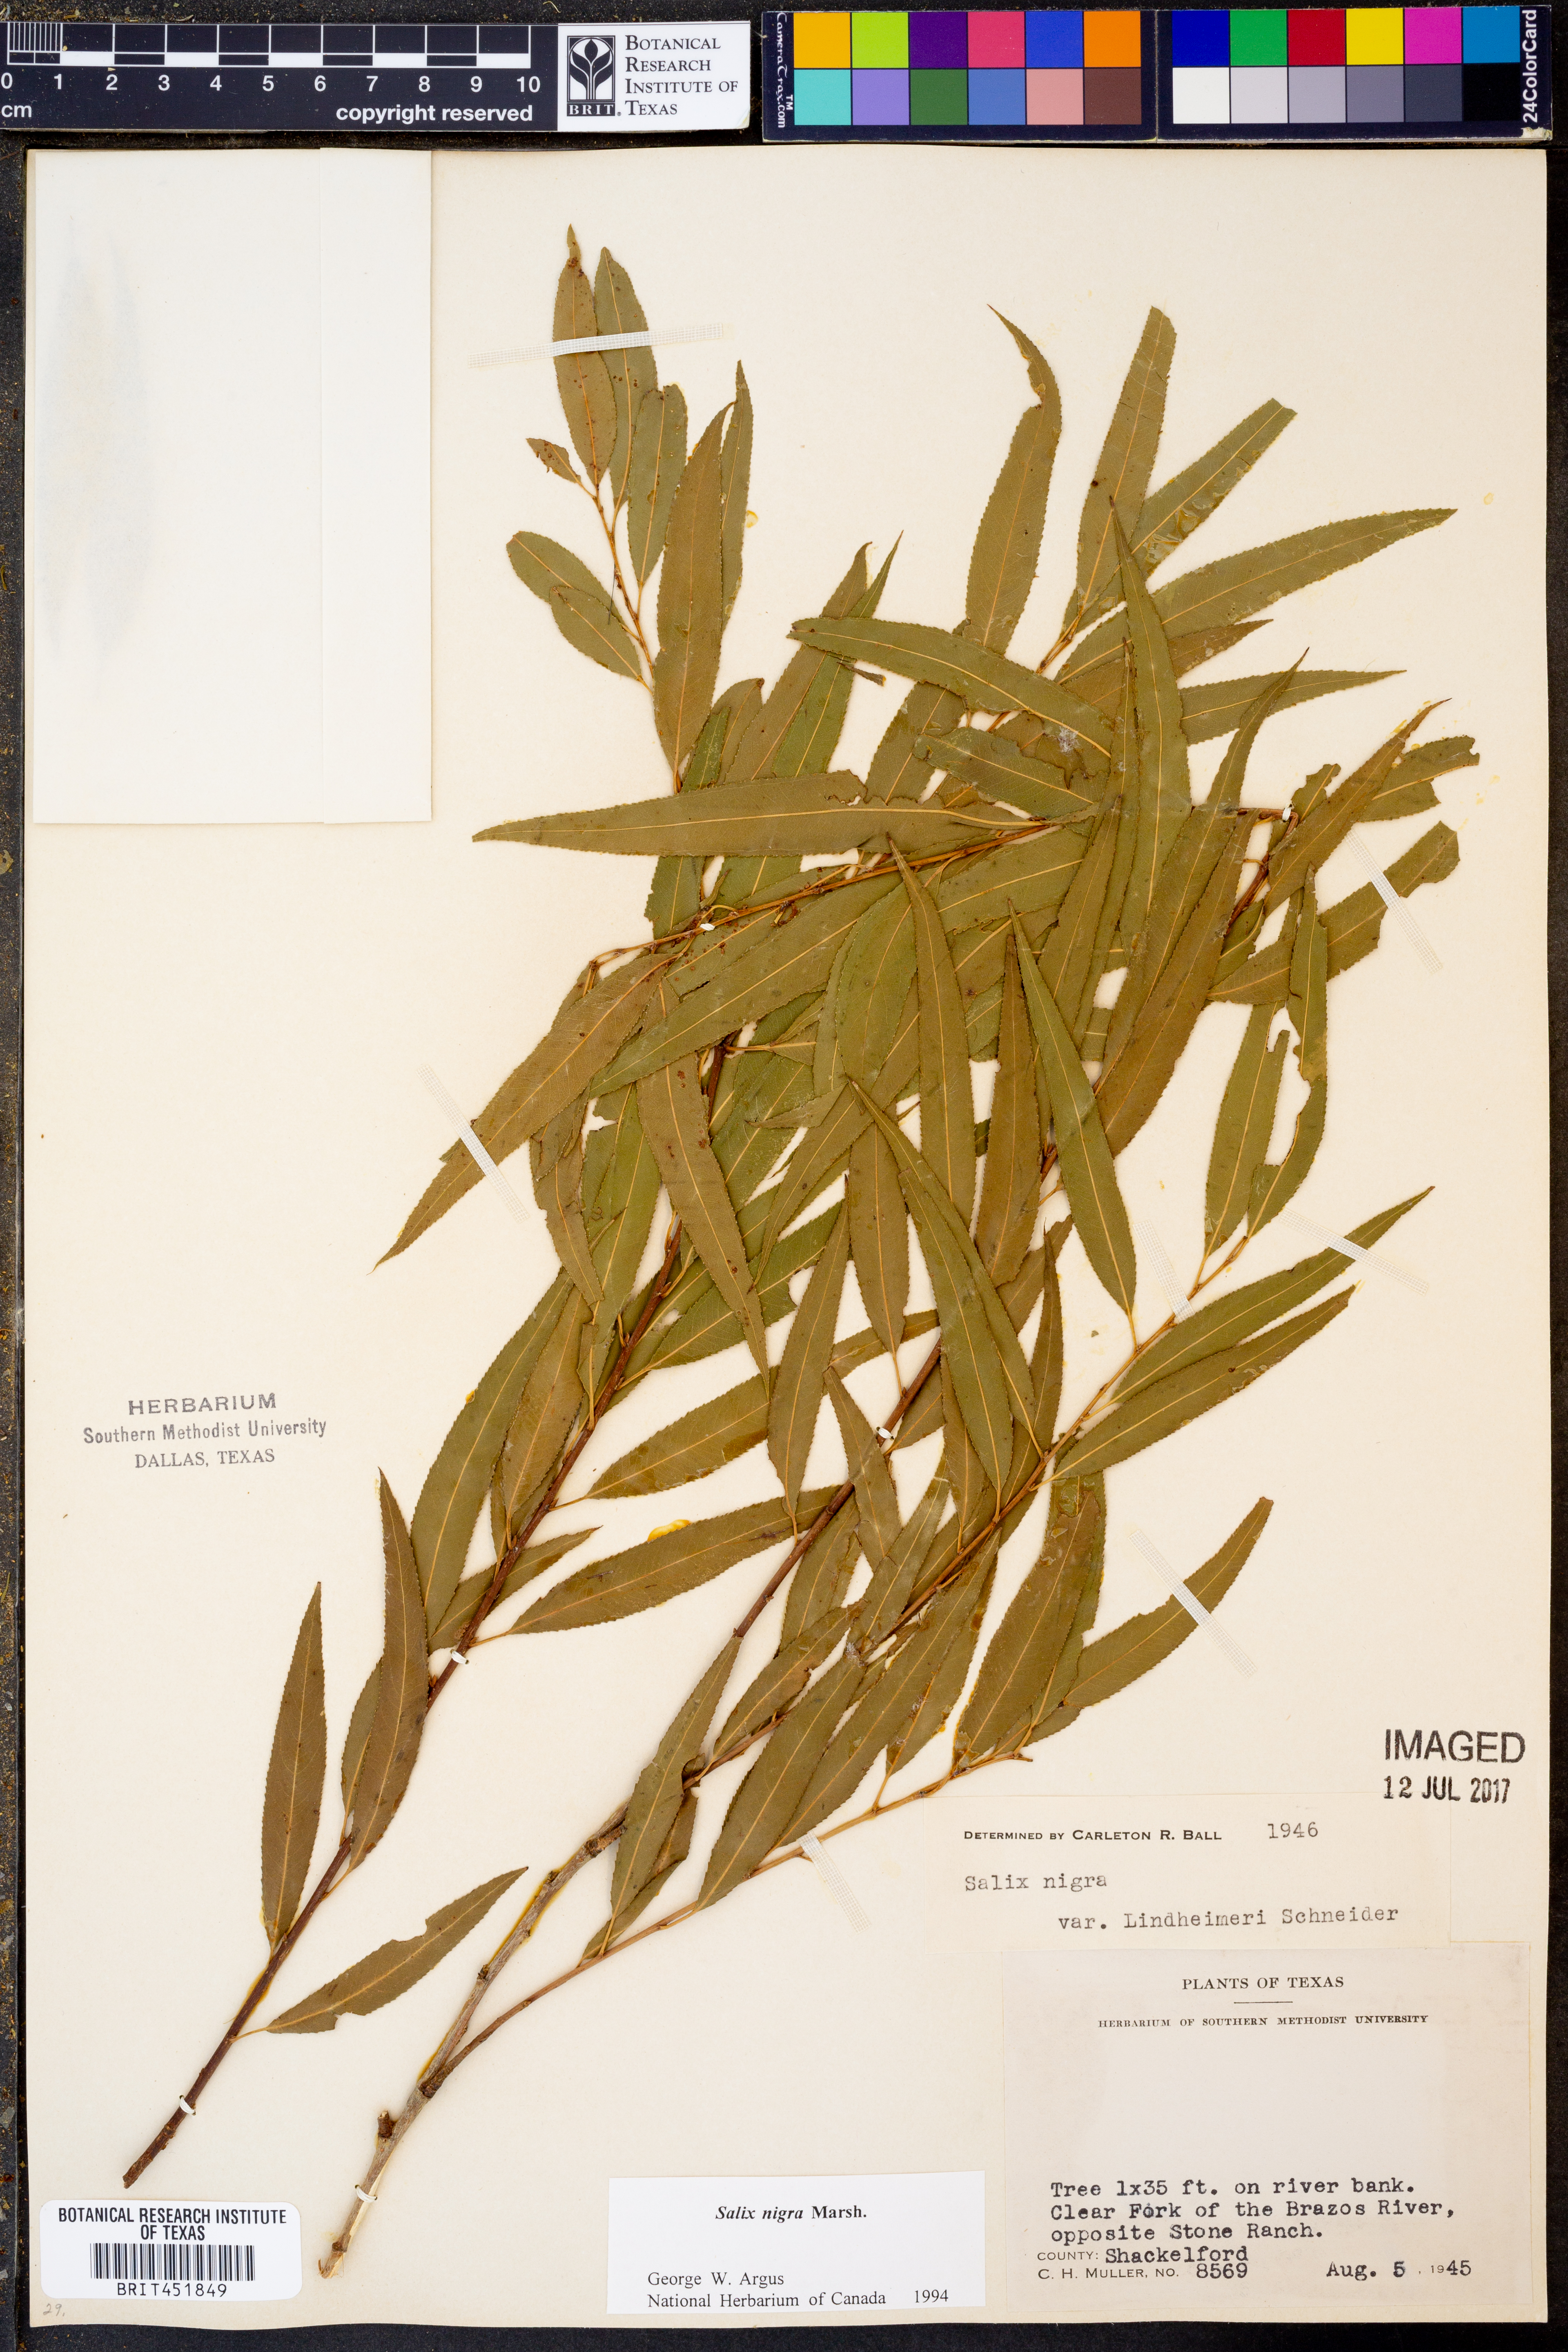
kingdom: Plantae
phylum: Tracheophyta
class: Magnoliopsida
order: Malpighiales
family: Salicaceae
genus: Salix
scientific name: Salix nigra
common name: Black willow
